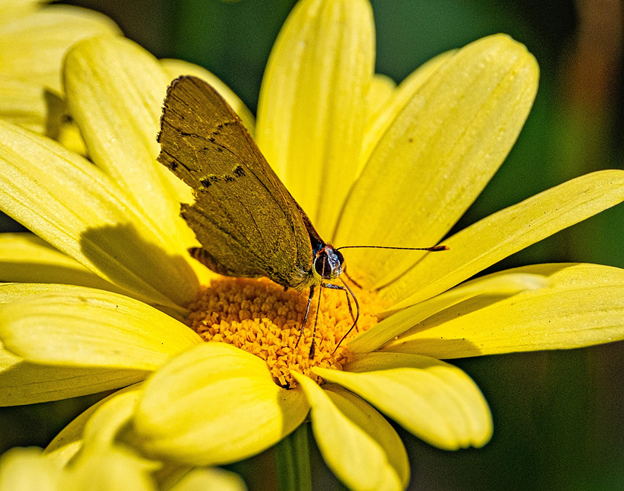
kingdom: Animalia
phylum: Arthropoda
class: Insecta
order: Lepidoptera
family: Lycaenidae
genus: Incisalia
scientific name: Incisalia irioides
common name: Brown Elfin
